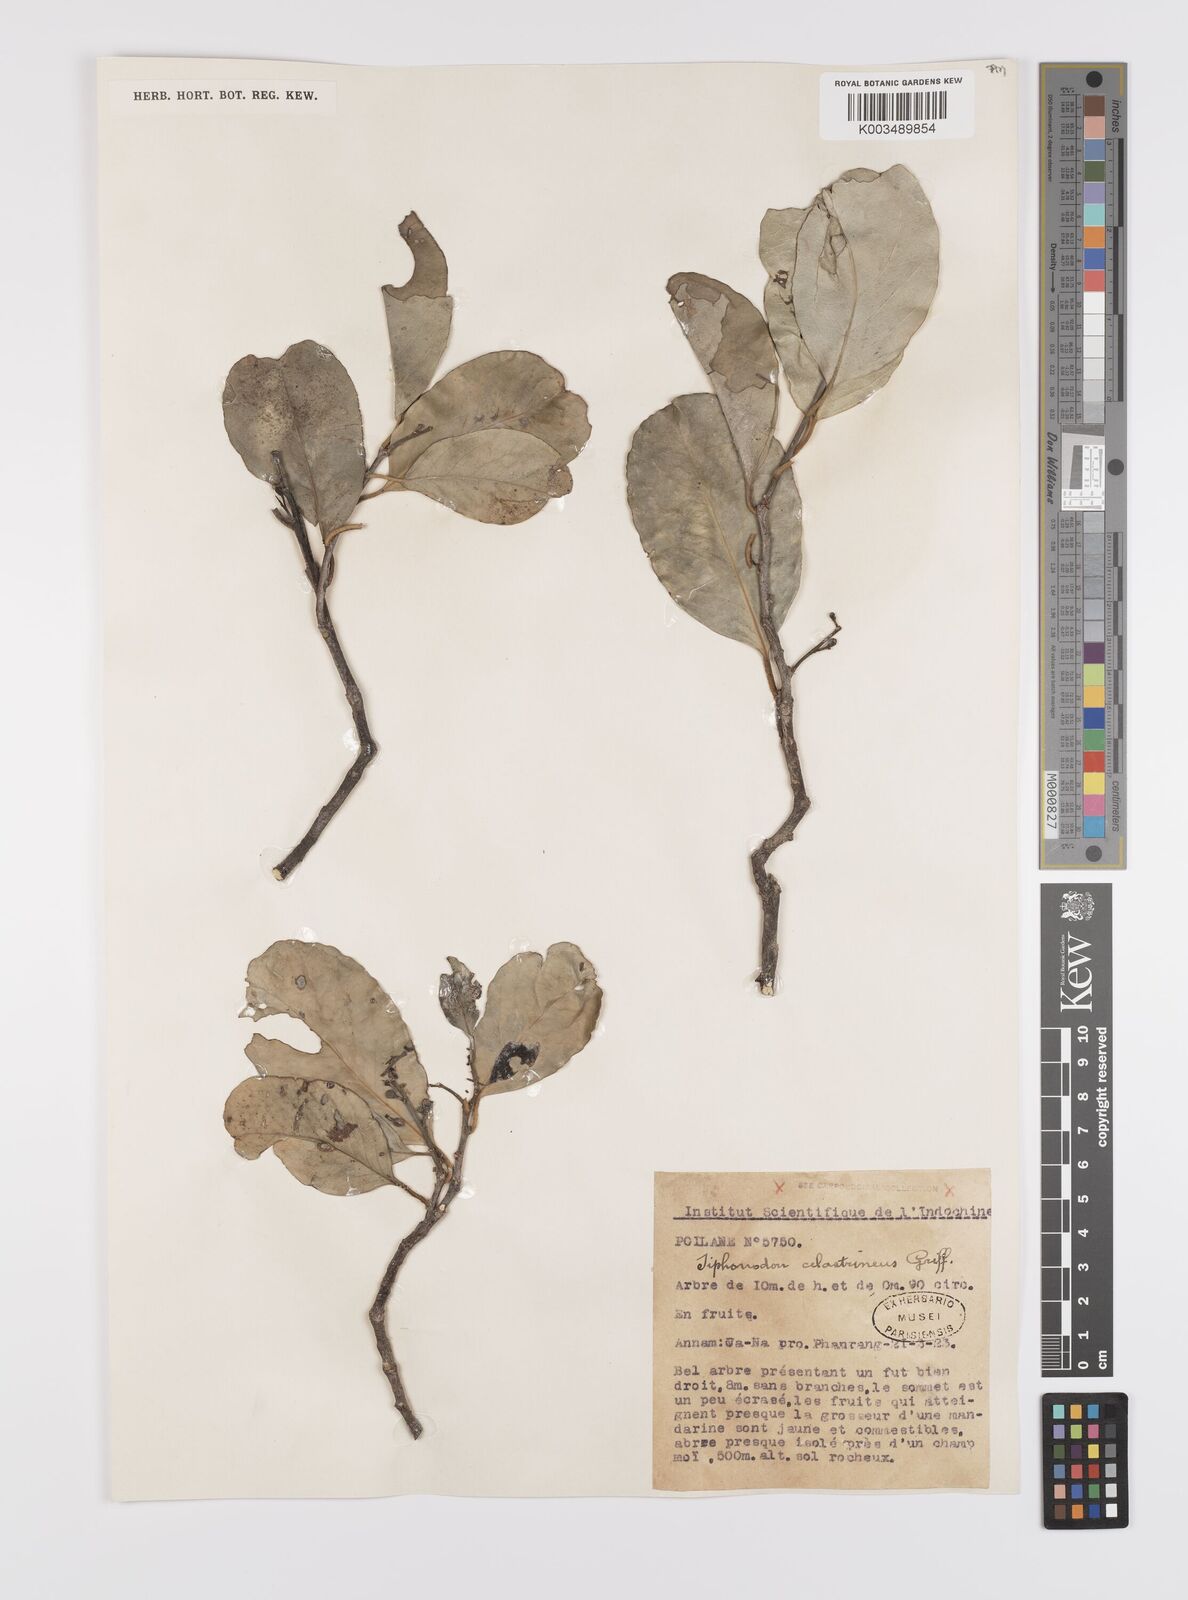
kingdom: Plantae
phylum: Tracheophyta
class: Magnoliopsida
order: Celastrales
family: Celastraceae
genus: Siphonodon
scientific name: Siphonodon celastrineus
